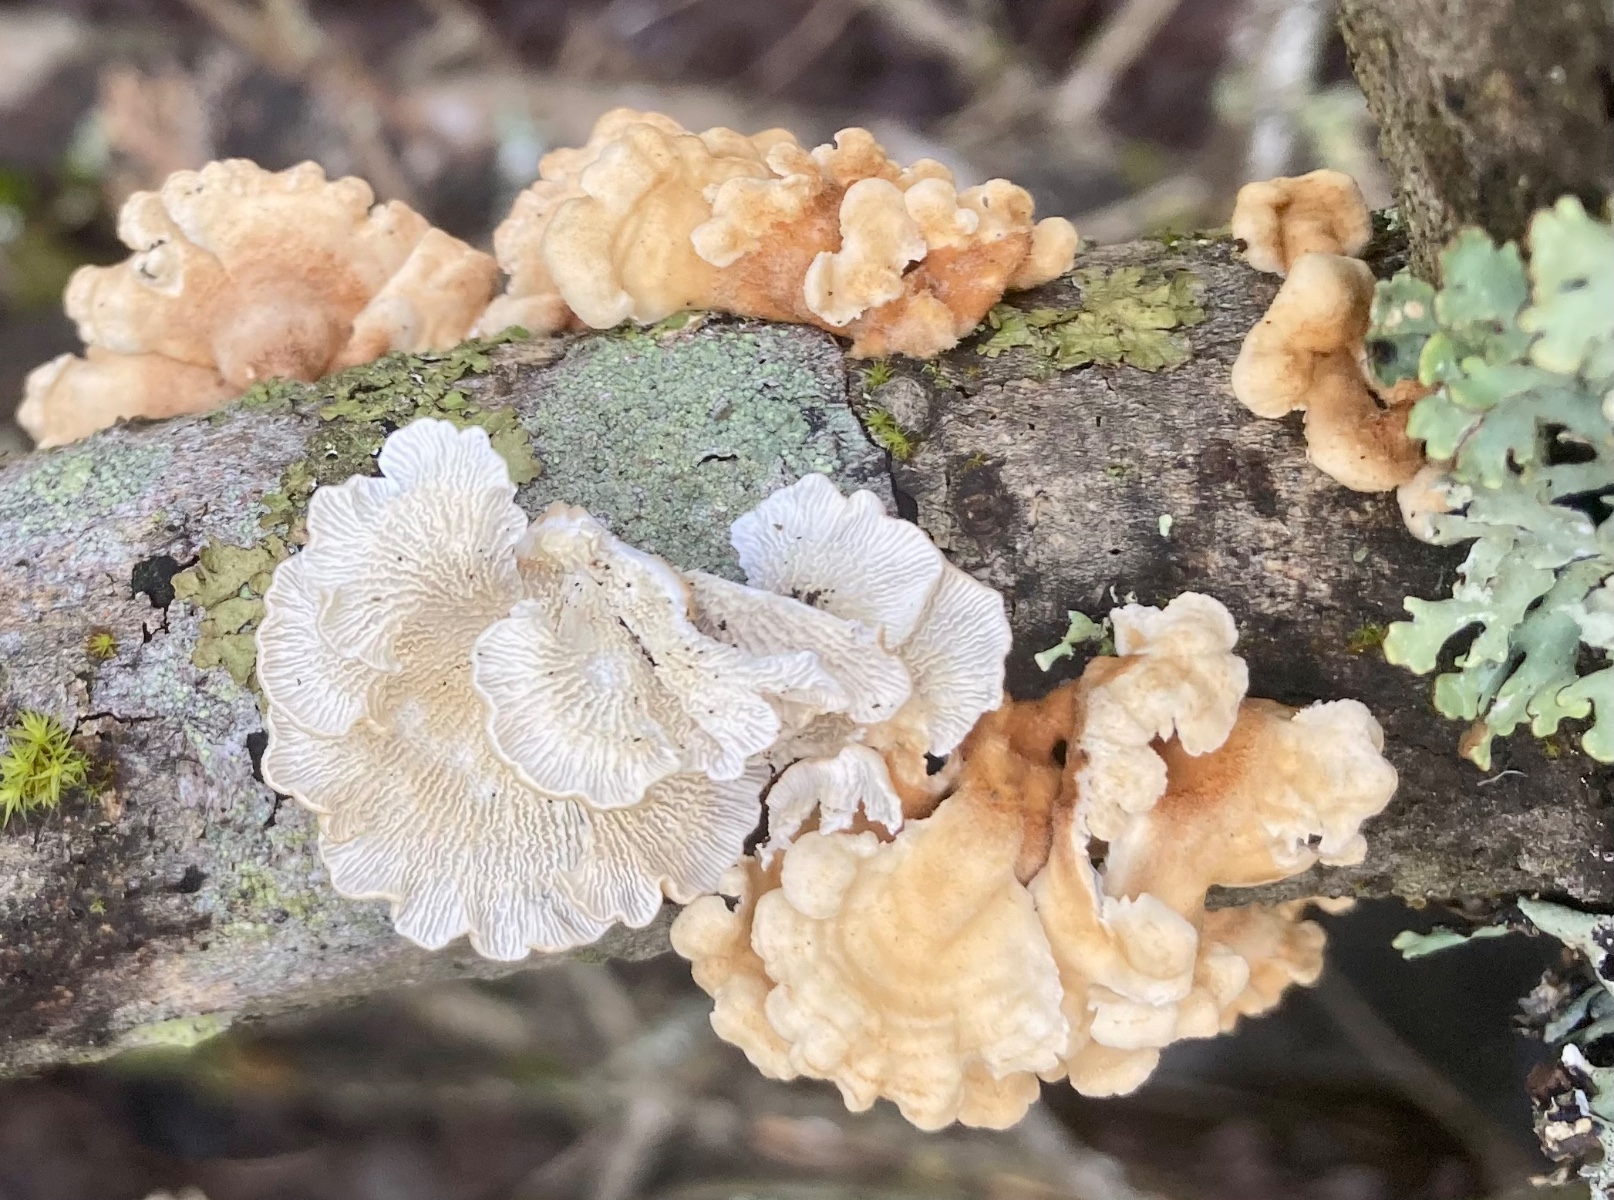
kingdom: Fungi
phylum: Basidiomycota
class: Agaricomycetes
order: Amylocorticiales
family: Amylocorticiaceae
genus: Plicaturopsis
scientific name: Plicaturopsis crispa
